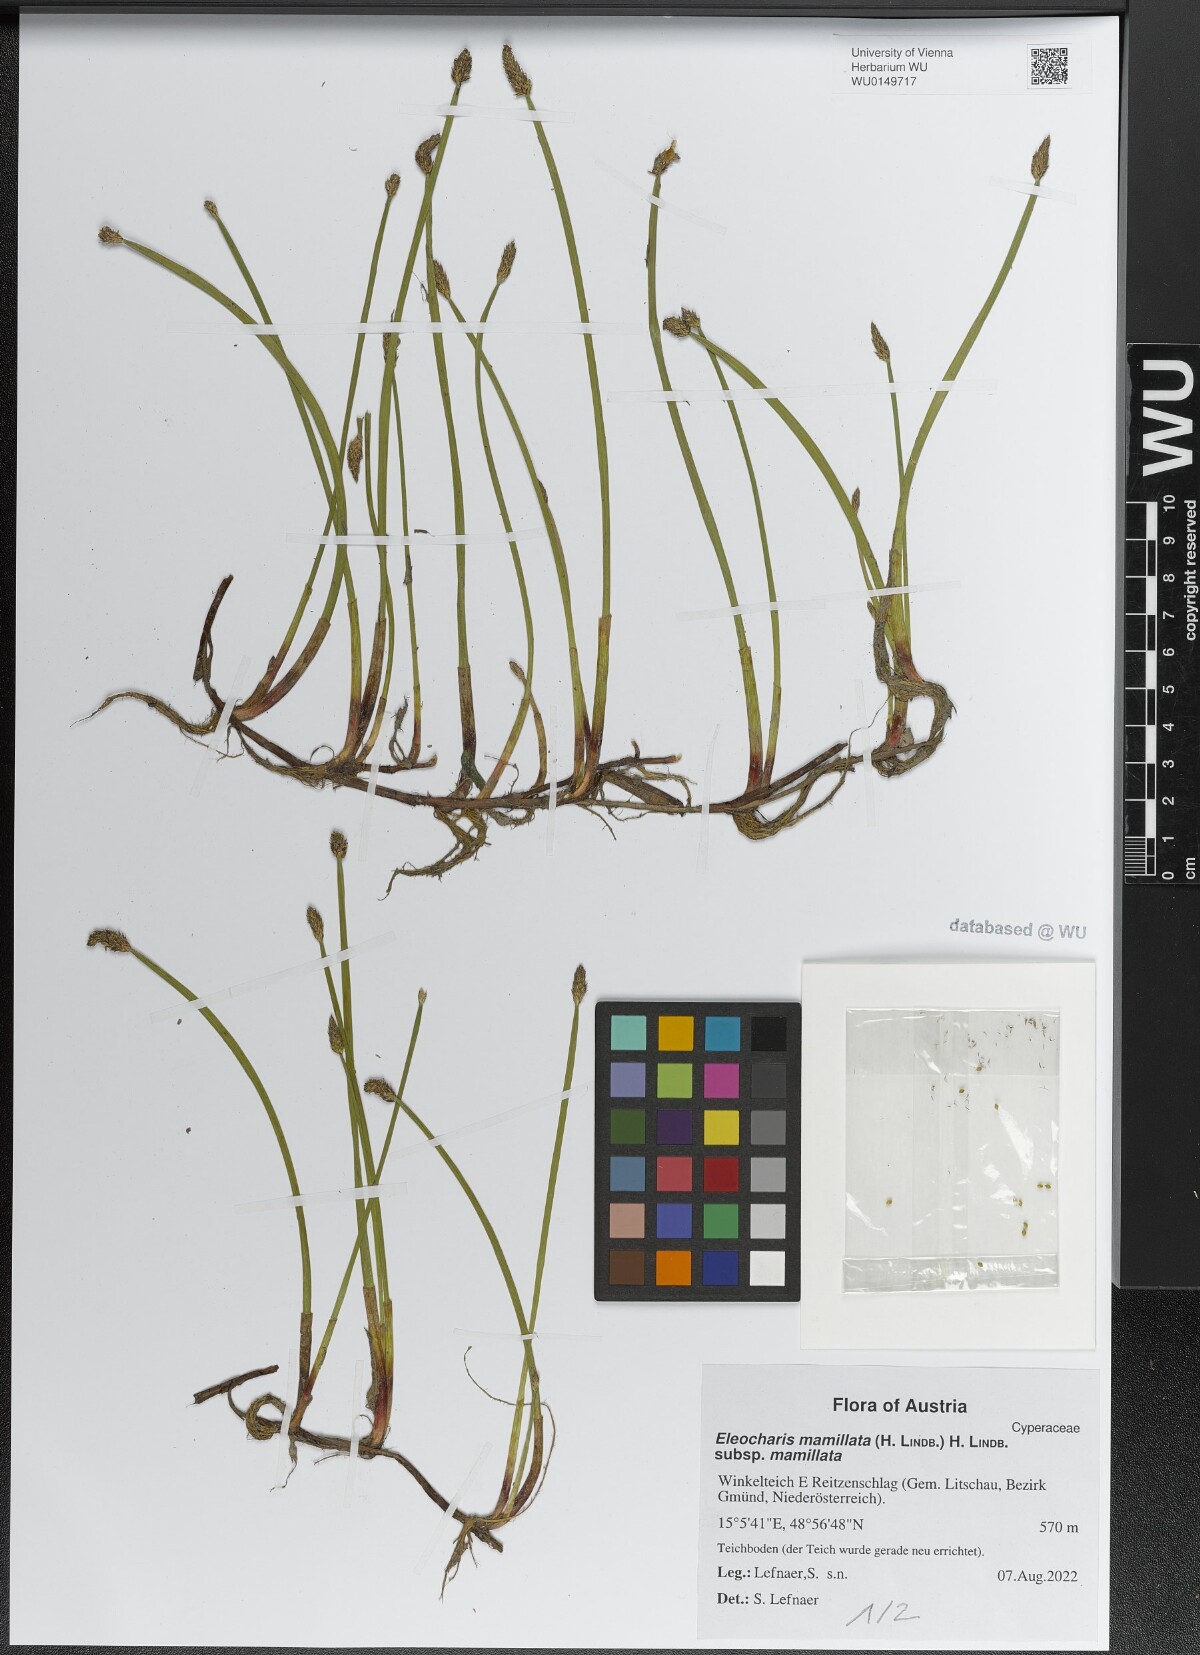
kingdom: Plantae
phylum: Tracheophyta
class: Liliopsida
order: Poales
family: Cyperaceae
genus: Eleocharis
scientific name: Eleocharis mamillata
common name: Northern spike-rush
